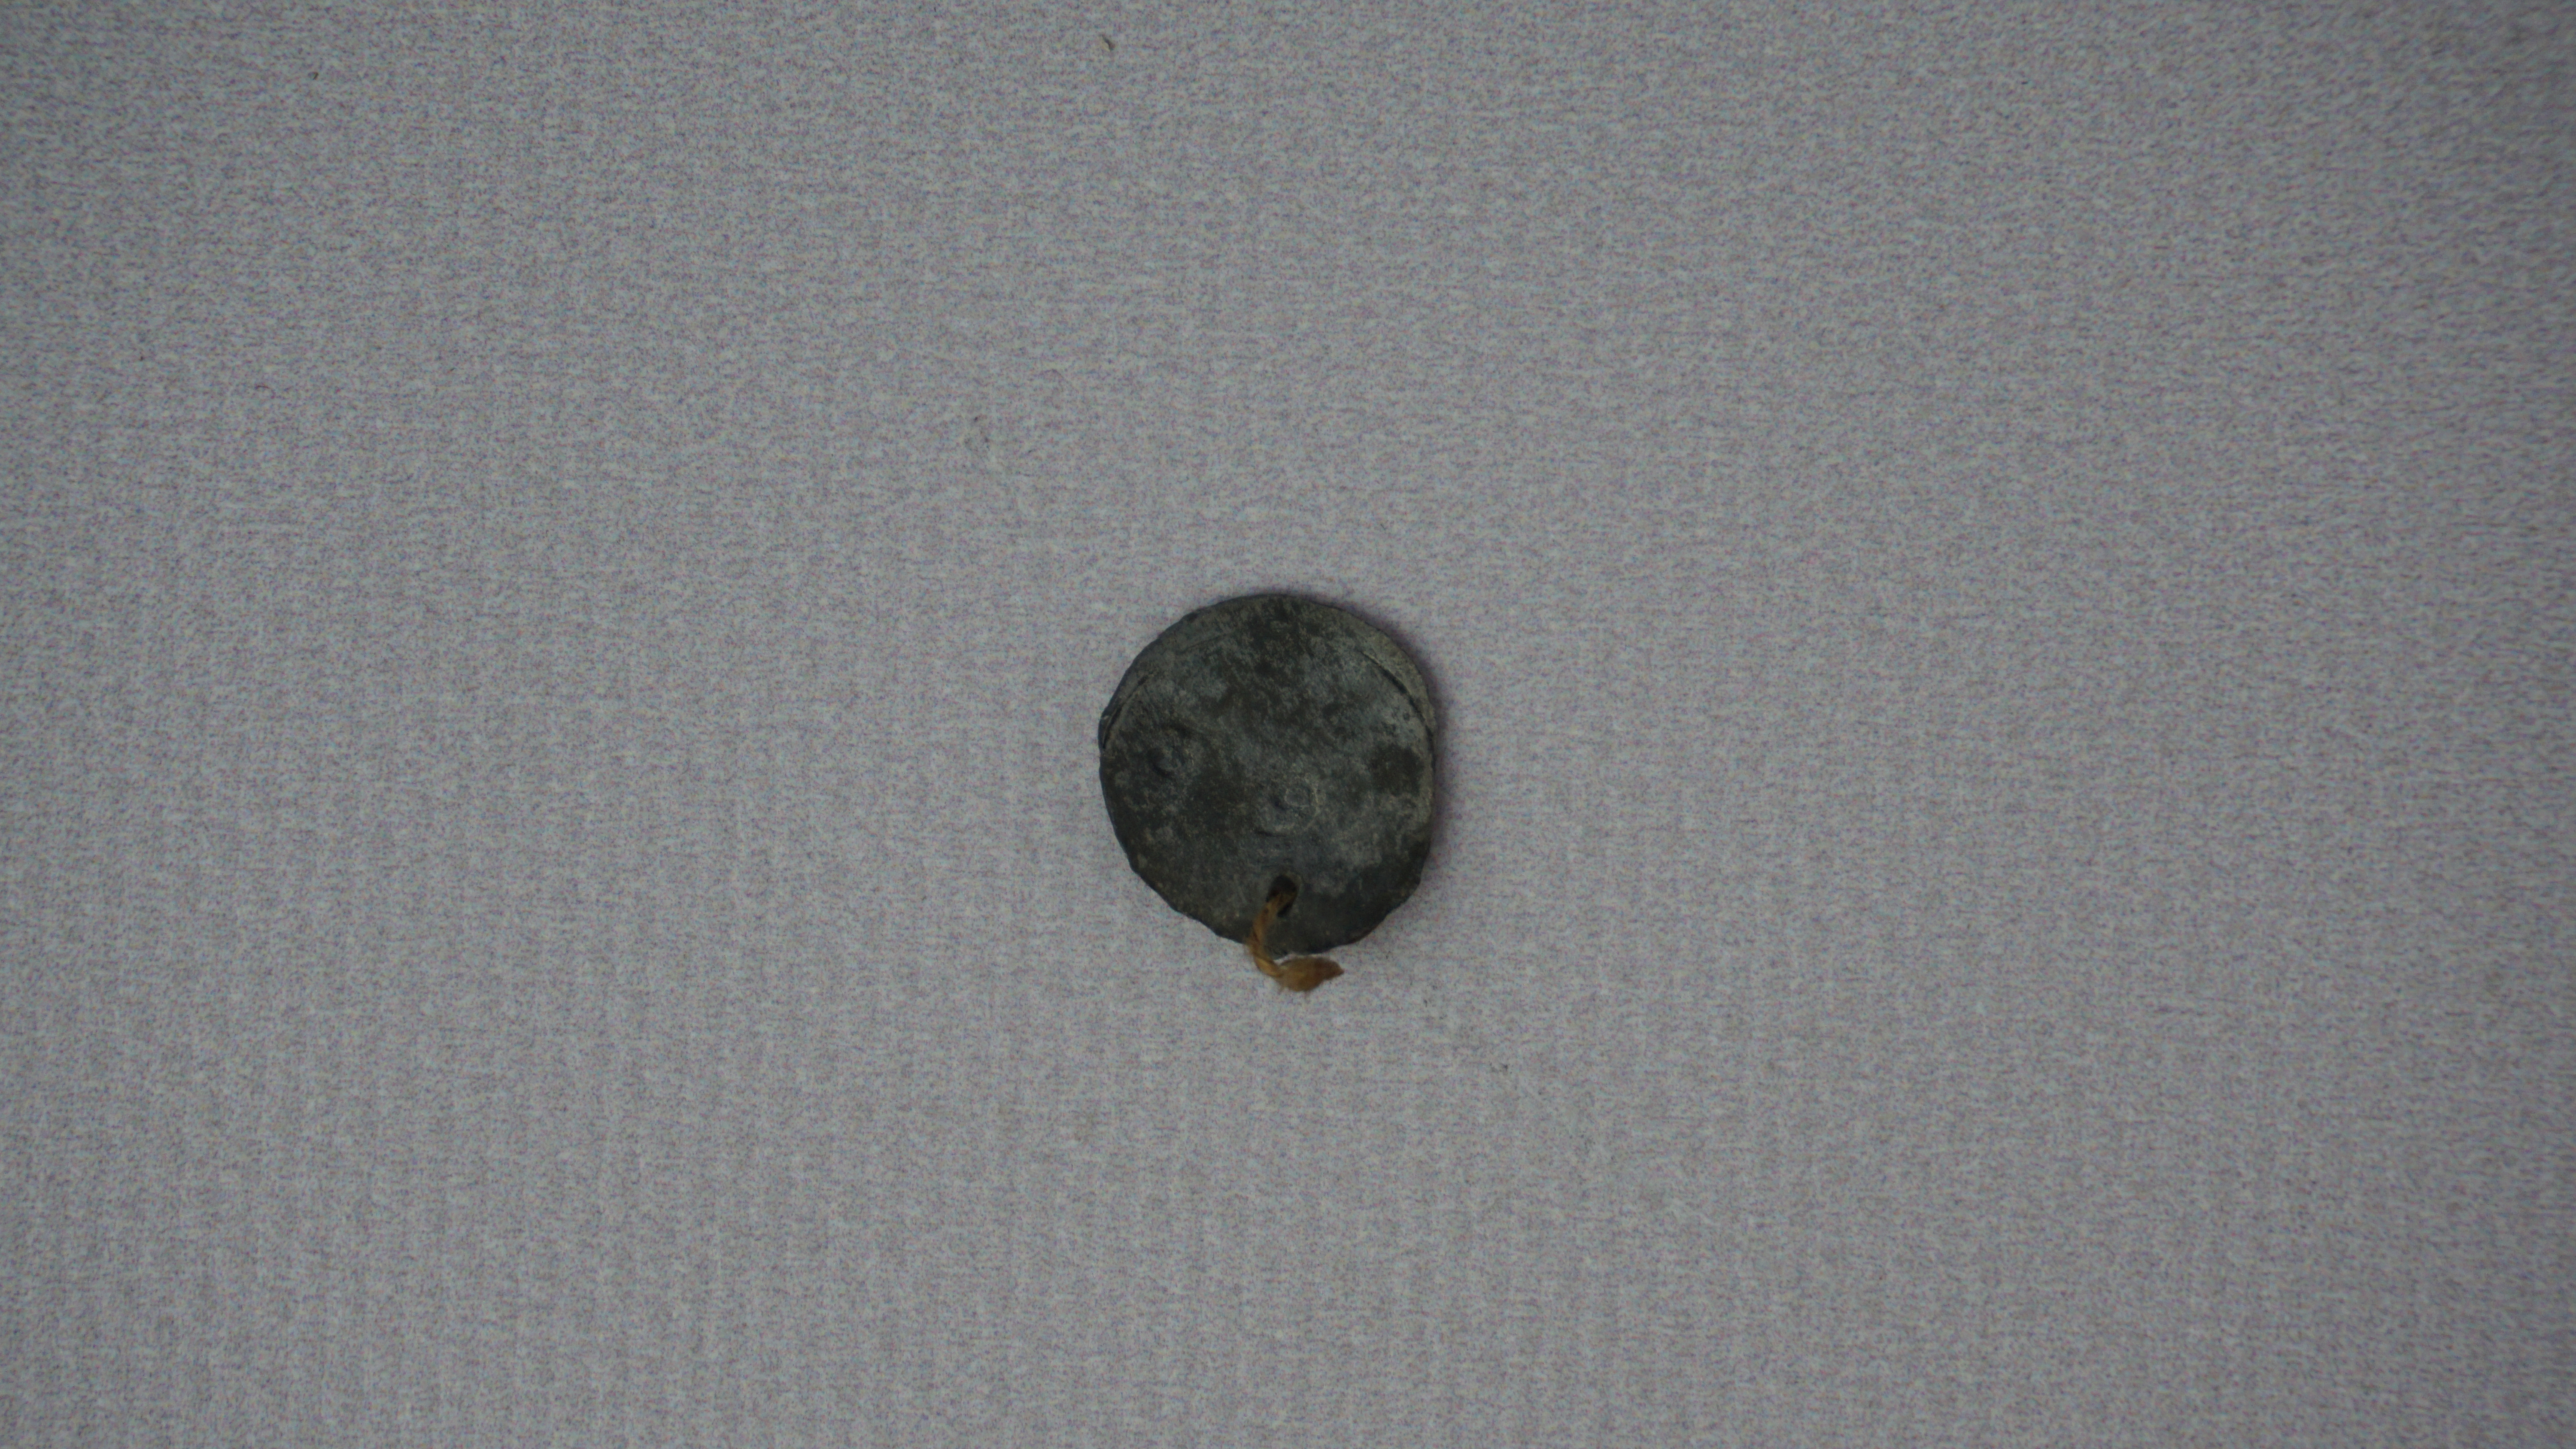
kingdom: Animalia
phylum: Chordata
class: Aves
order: Caprimulgiformes
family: Caprimulgidae
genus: Chordeiles
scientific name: Chordeiles nacunda
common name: Nacunda nighthawk
